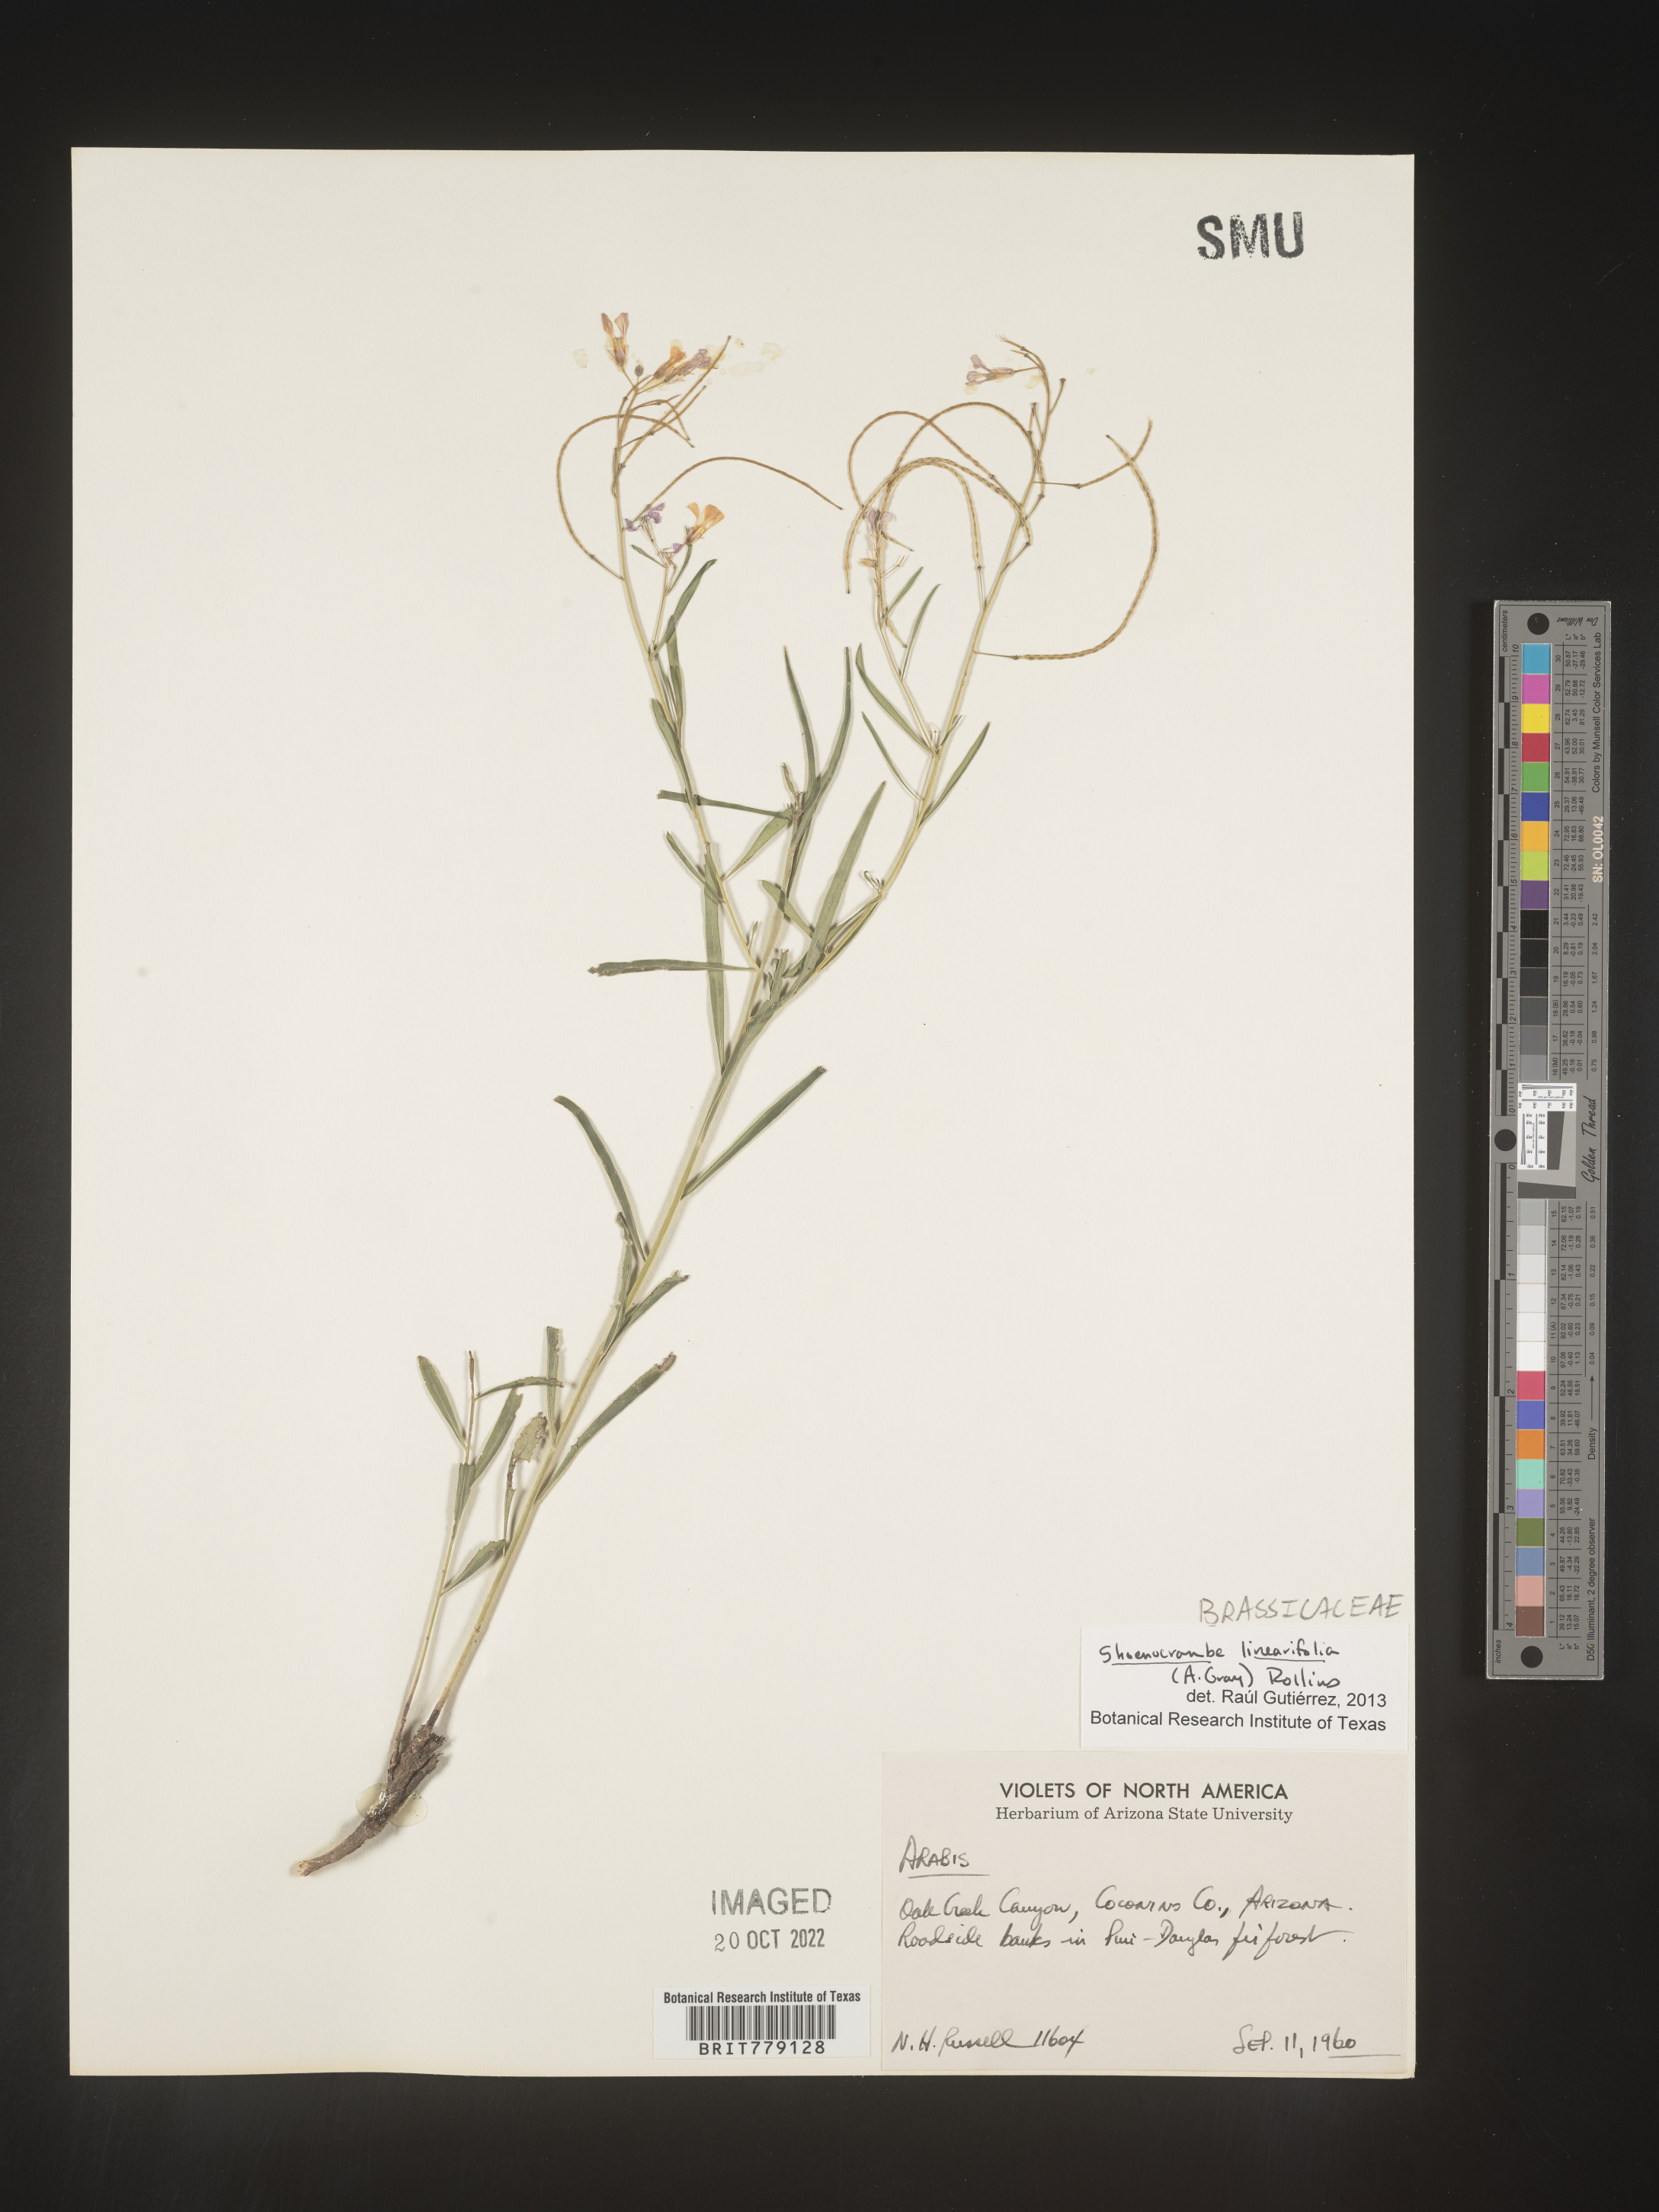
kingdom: Plantae
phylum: Tracheophyta
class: Magnoliopsida
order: Brassicales
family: Brassicaceae
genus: Hesperidanthus
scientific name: Hesperidanthus
